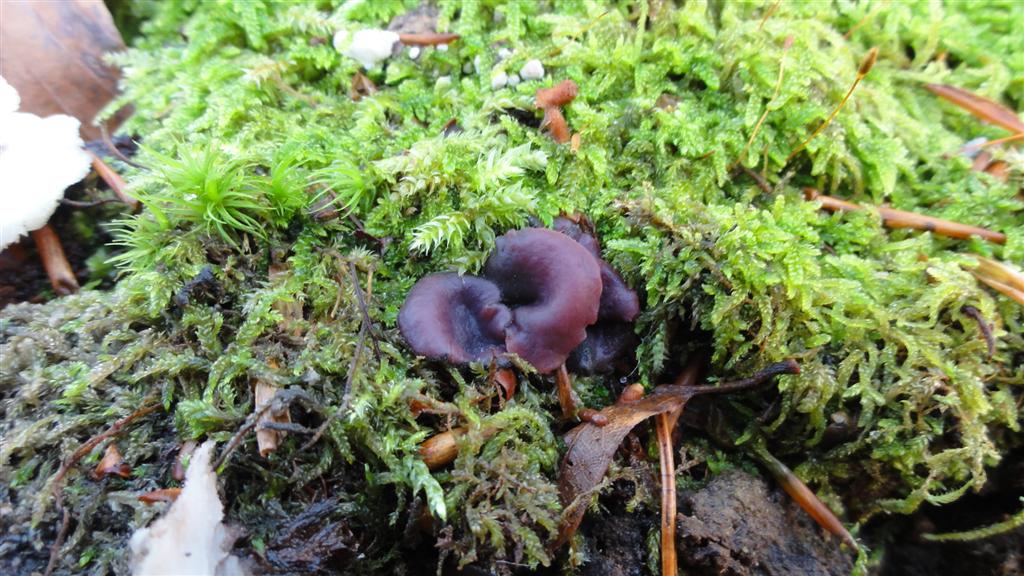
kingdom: Fungi
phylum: Ascomycota
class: Leotiomycetes
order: Helotiales
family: Gelatinodiscaceae
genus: Ascocoryne
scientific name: Ascocoryne cylichnium
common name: stor sejskive
